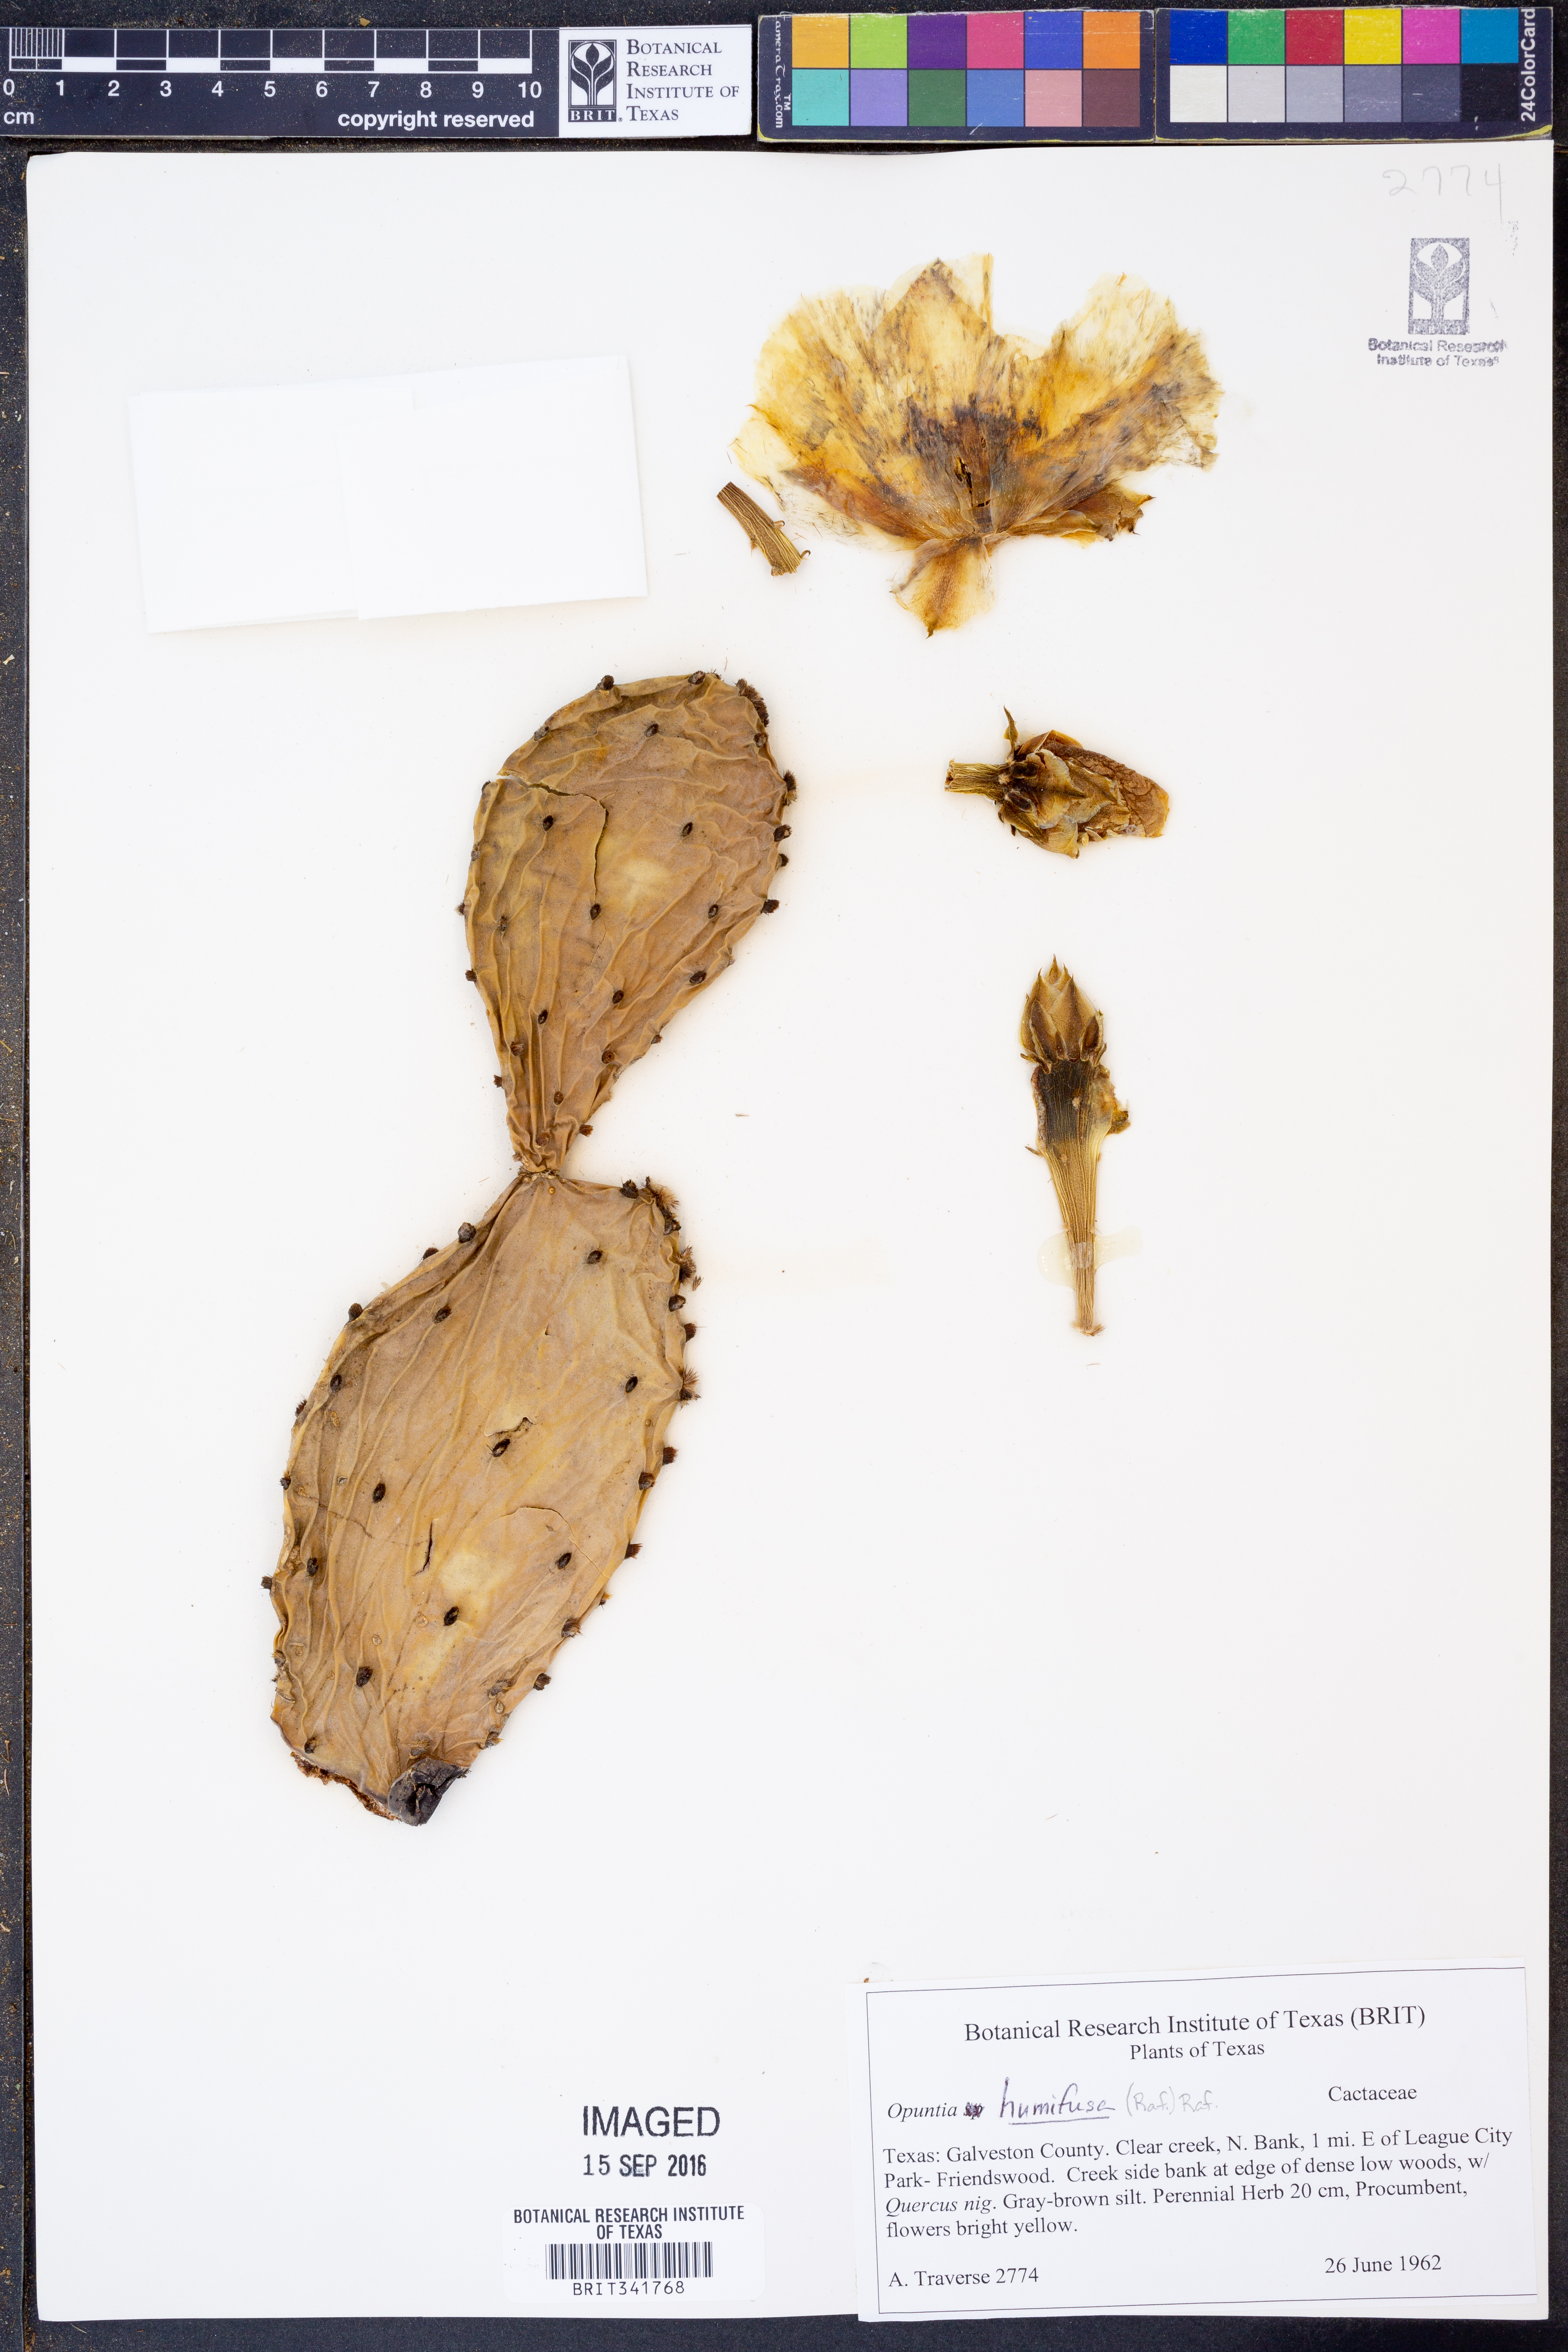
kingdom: Plantae
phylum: Tracheophyta
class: Magnoliopsida
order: Caryophyllales
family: Cactaceae
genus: Opuntia
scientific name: Opuntia humifusa
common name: Eastern prickly-pear
